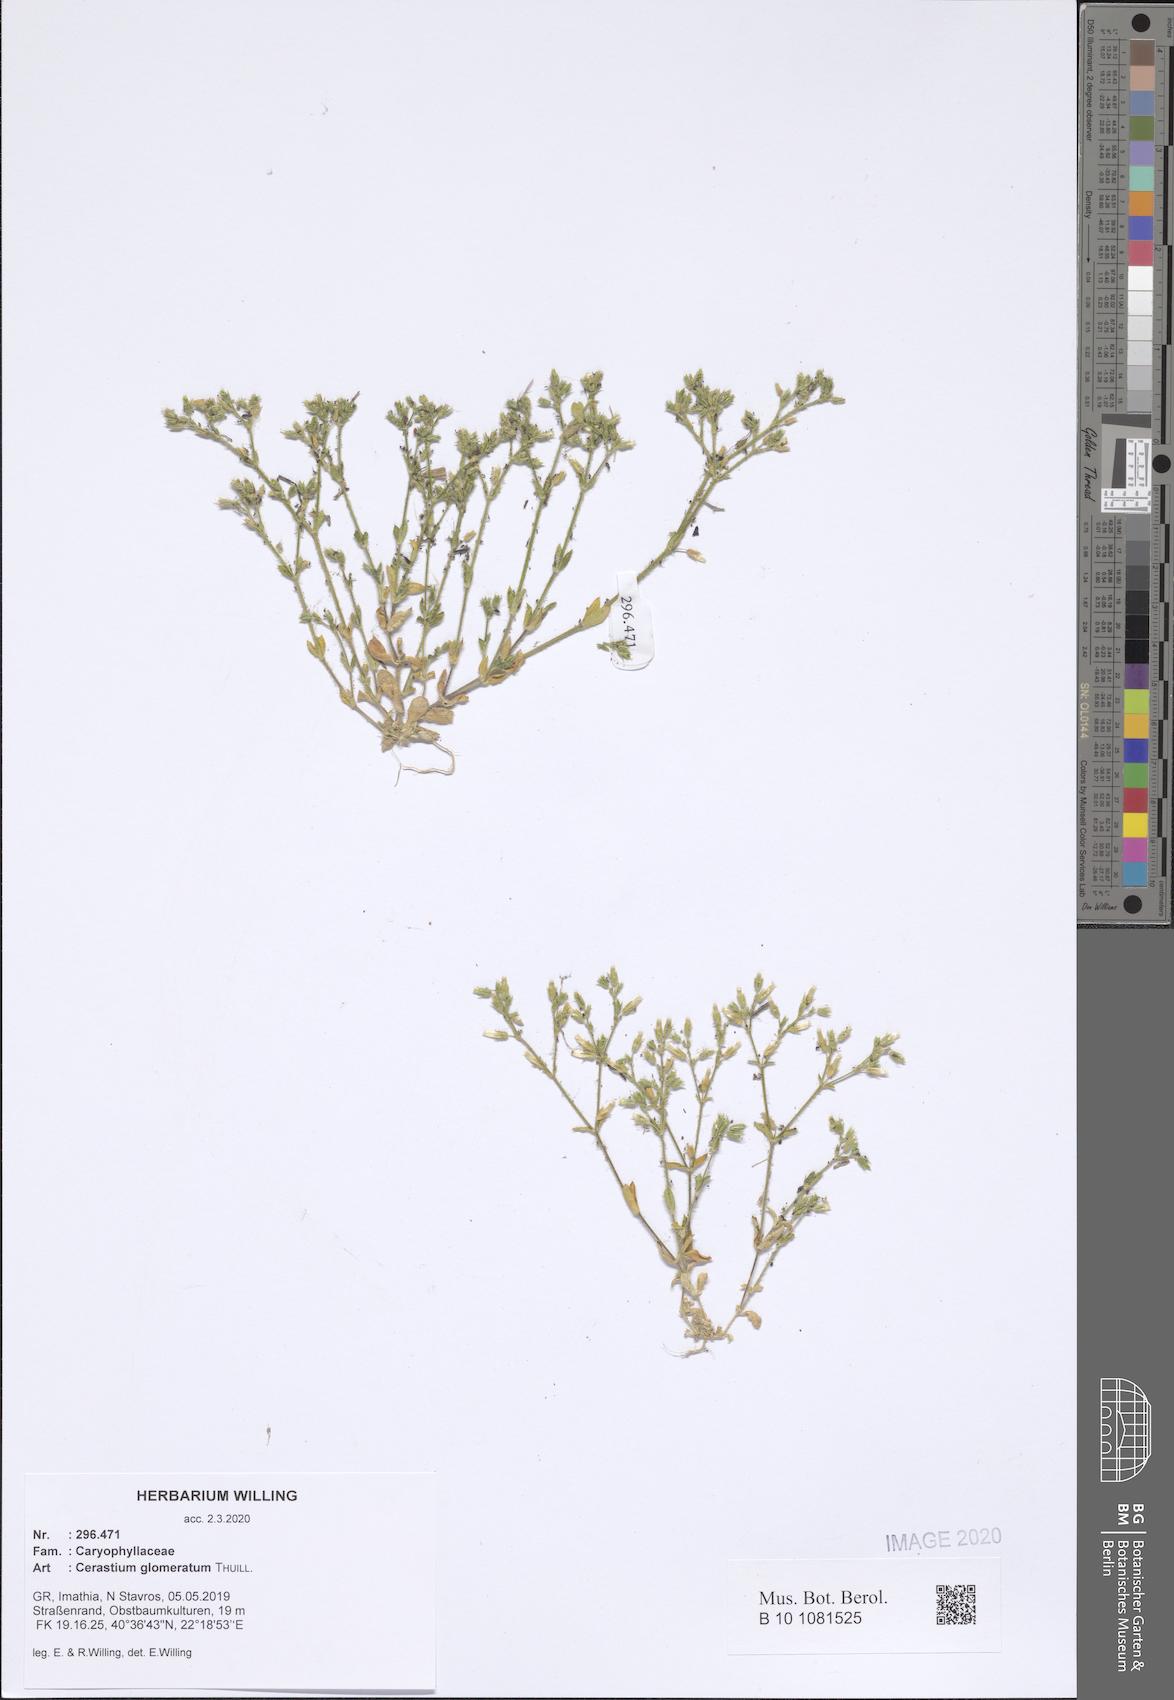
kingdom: Plantae
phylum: Tracheophyta
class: Magnoliopsida
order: Caryophyllales
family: Caryophyllaceae
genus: Cerastium
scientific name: Cerastium glomeratum
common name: Sticky chickweed
